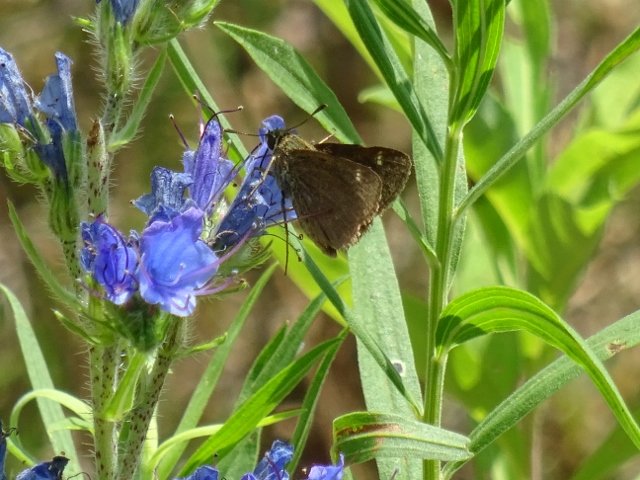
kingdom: Animalia
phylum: Arthropoda
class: Insecta
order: Lepidoptera
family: Hesperiidae
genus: Polites
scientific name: Polites egeremet
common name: Northern Broken-Dash
